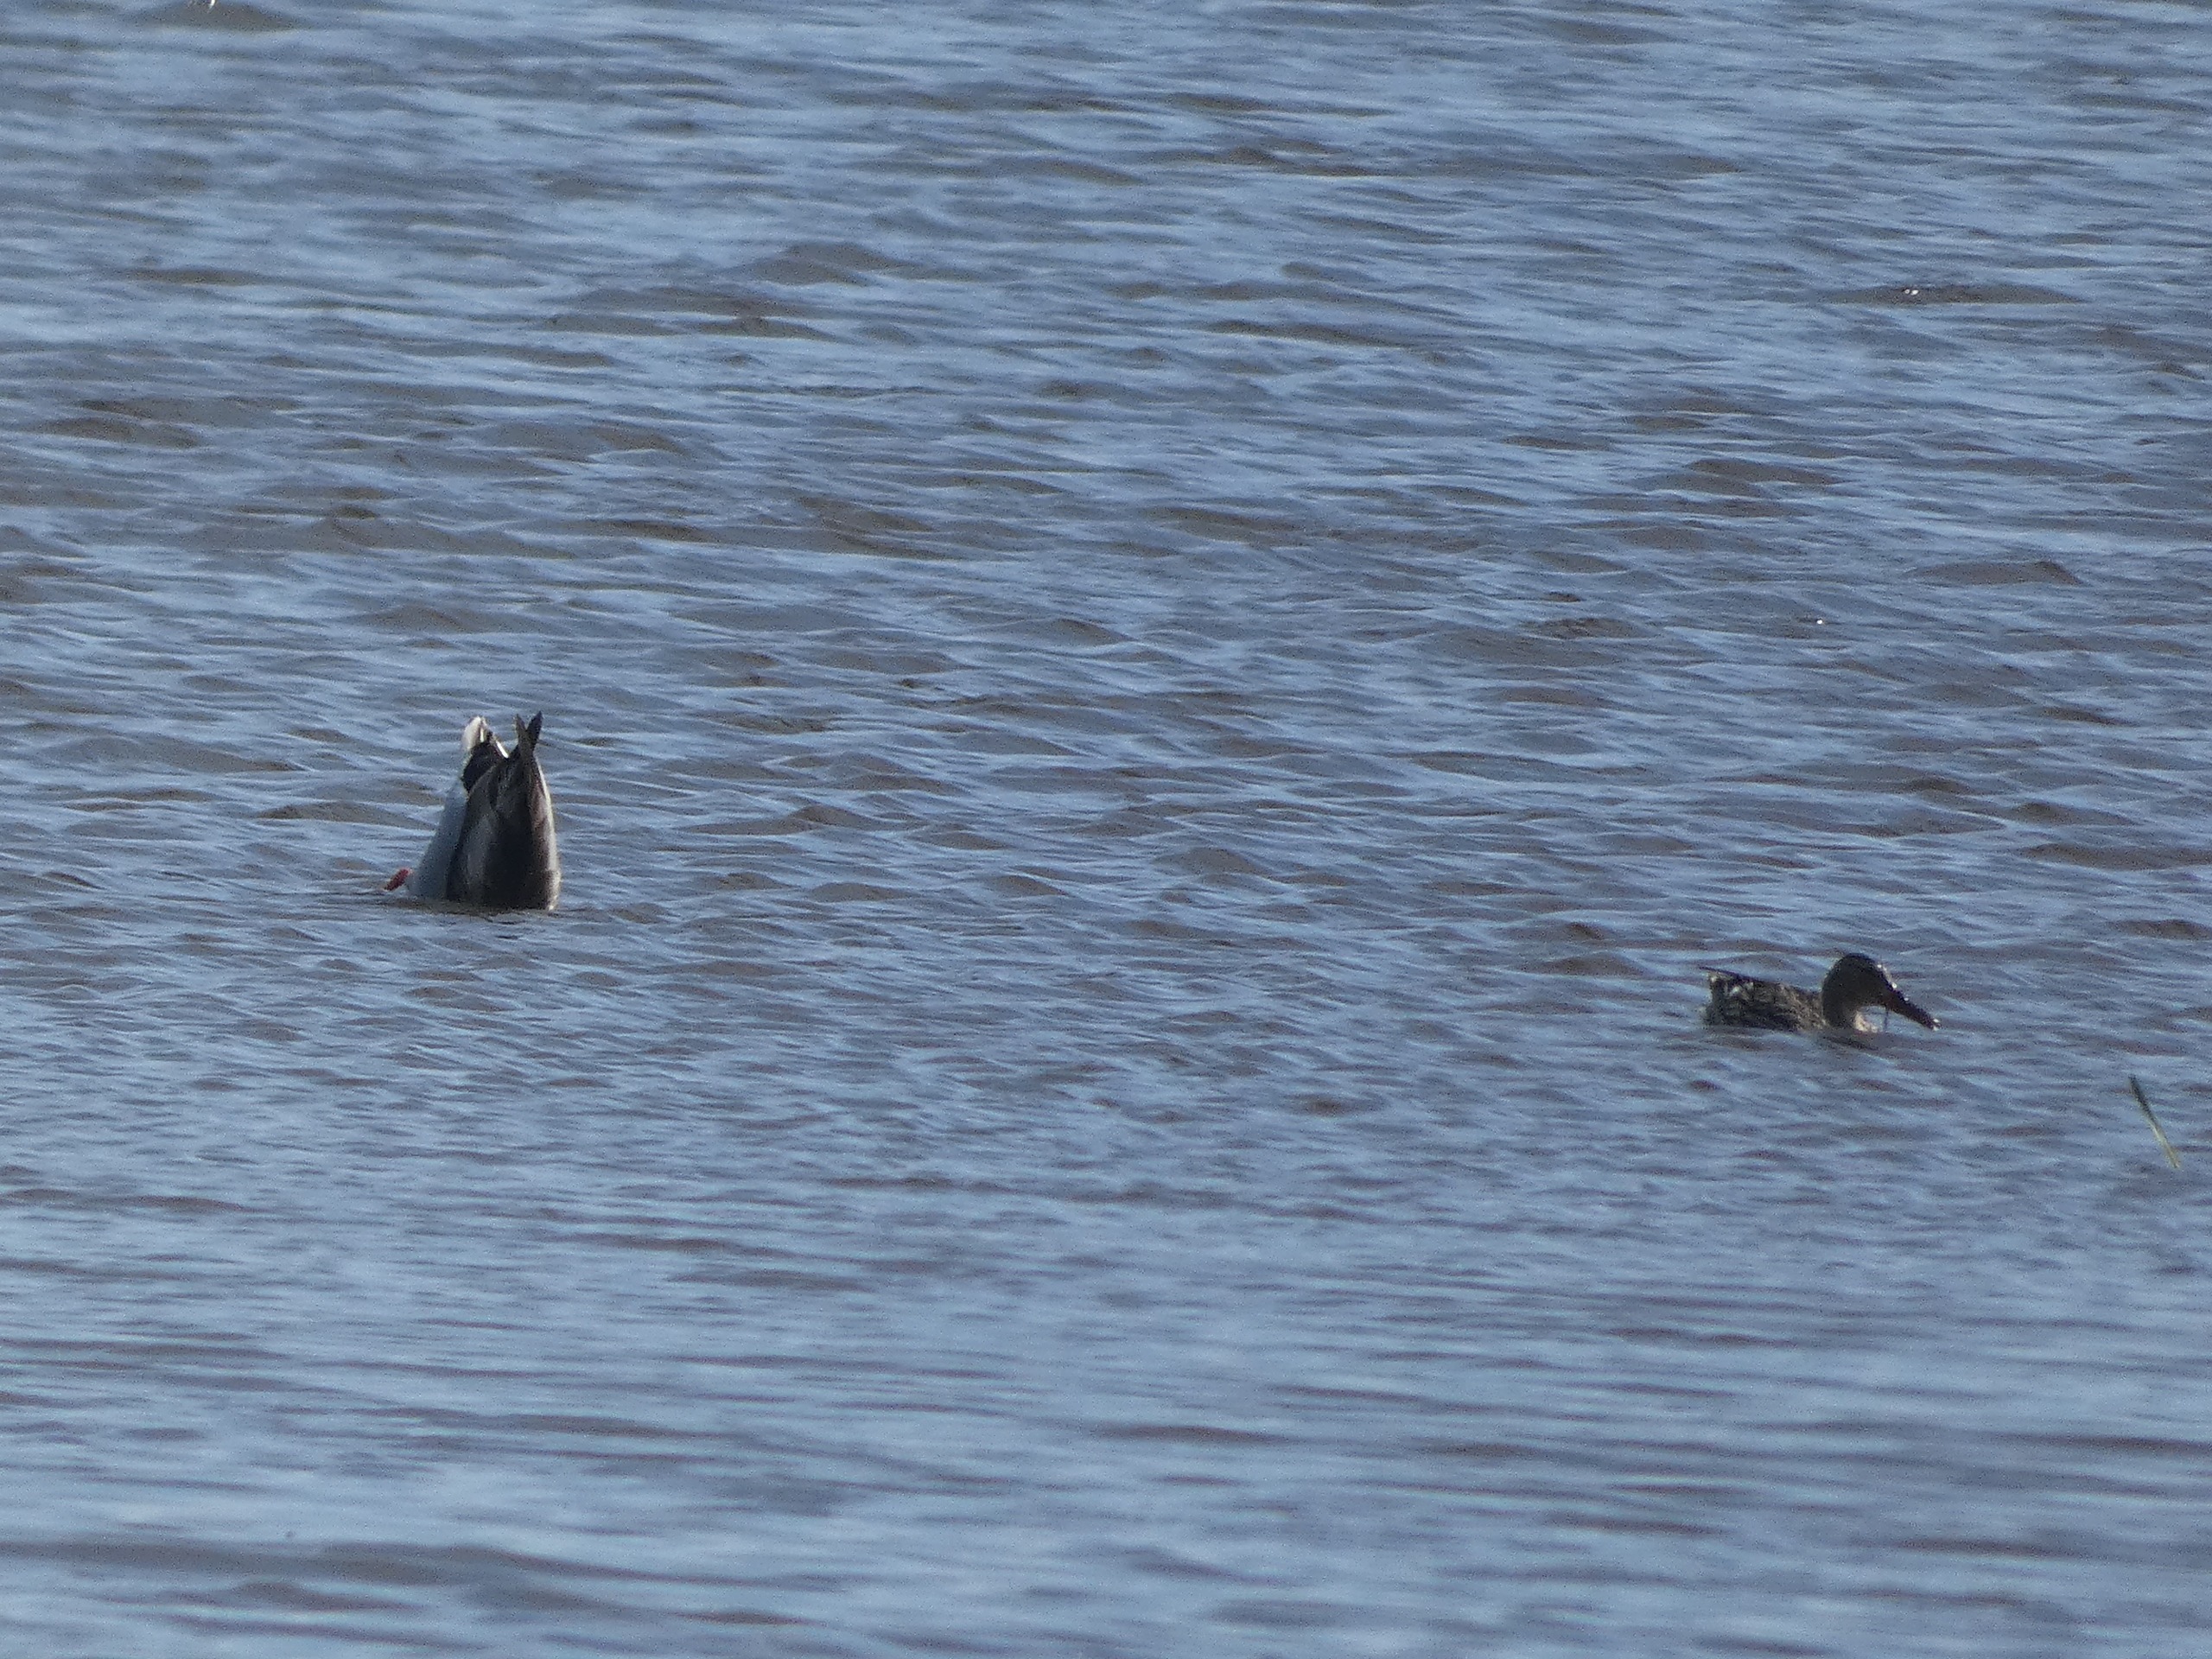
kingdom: Animalia
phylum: Chordata
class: Aves
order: Anseriformes
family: Anatidae
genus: Anas
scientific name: Anas platyrhynchos
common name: Gråand
